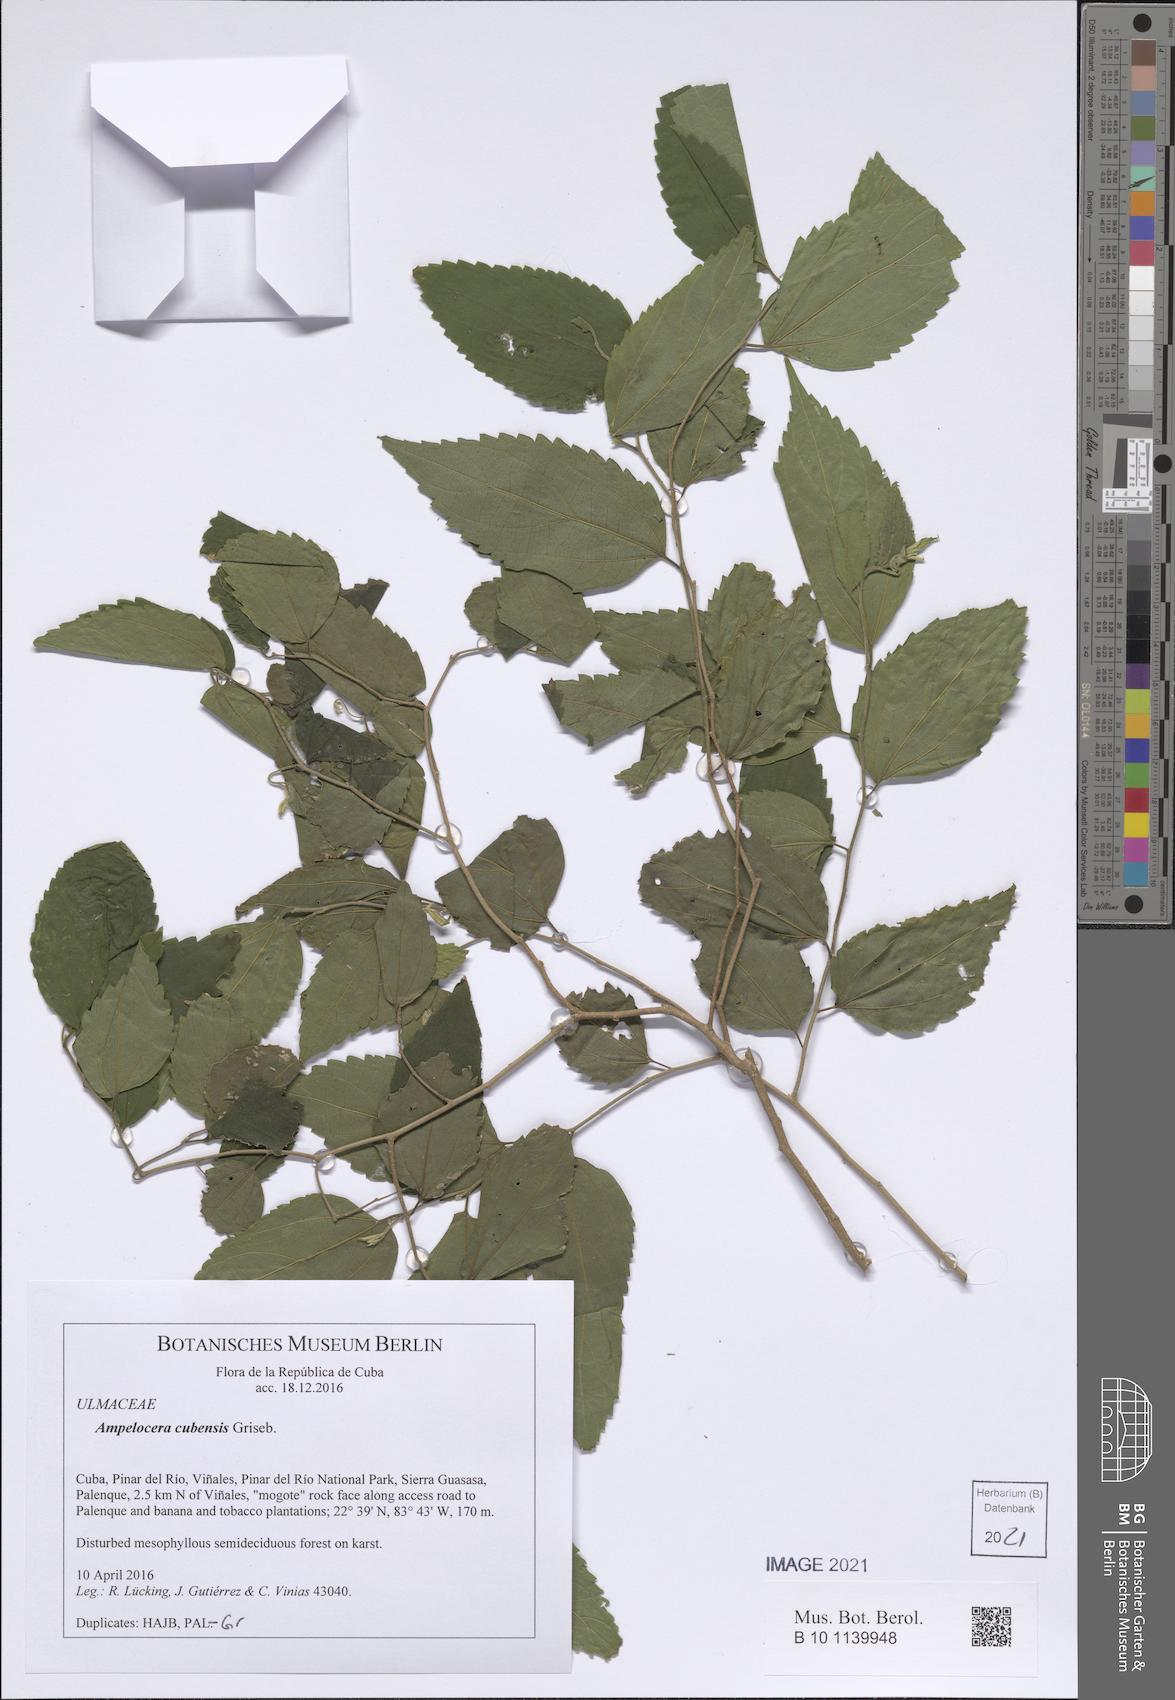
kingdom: Plantae
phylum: Tracheophyta
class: Magnoliopsida
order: Rosales
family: Cannabaceae
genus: Celtis
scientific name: Celtis trinervia
